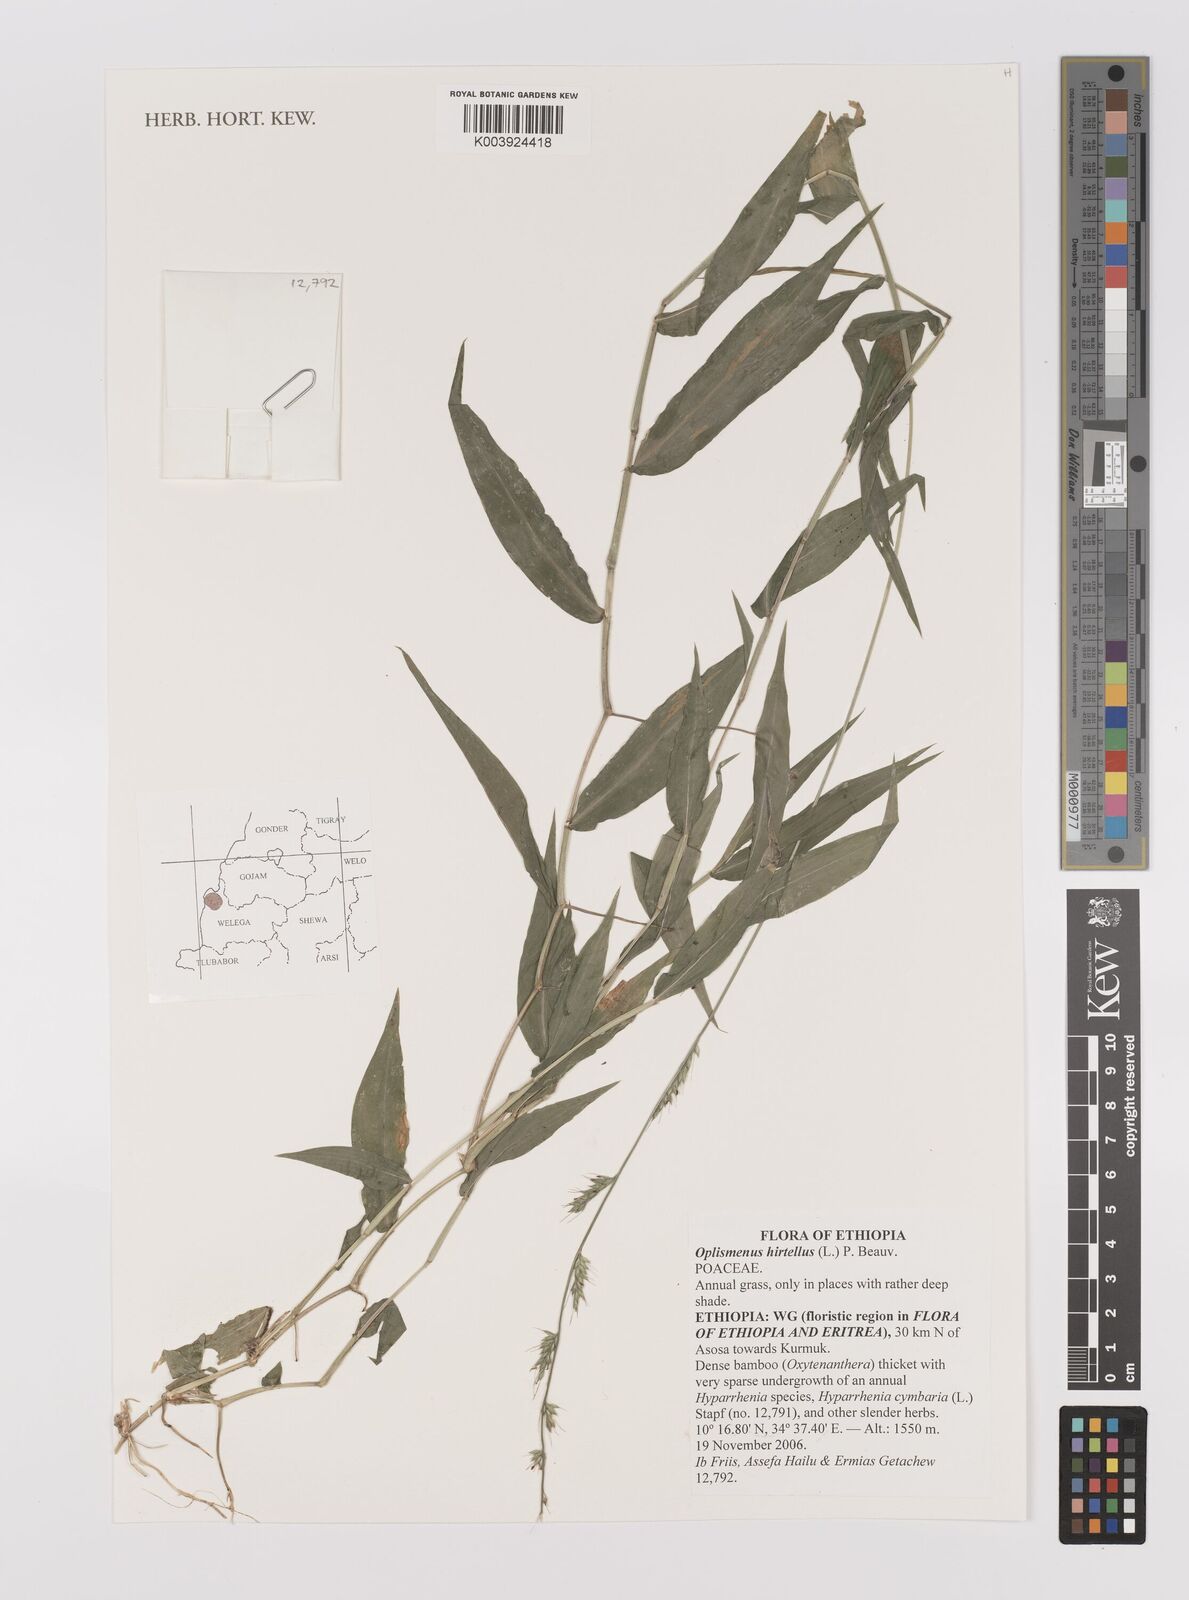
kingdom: Plantae
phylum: Tracheophyta
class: Liliopsida
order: Poales
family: Poaceae
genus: Oplismenus
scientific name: Oplismenus hirtellus
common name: Basketgrass
